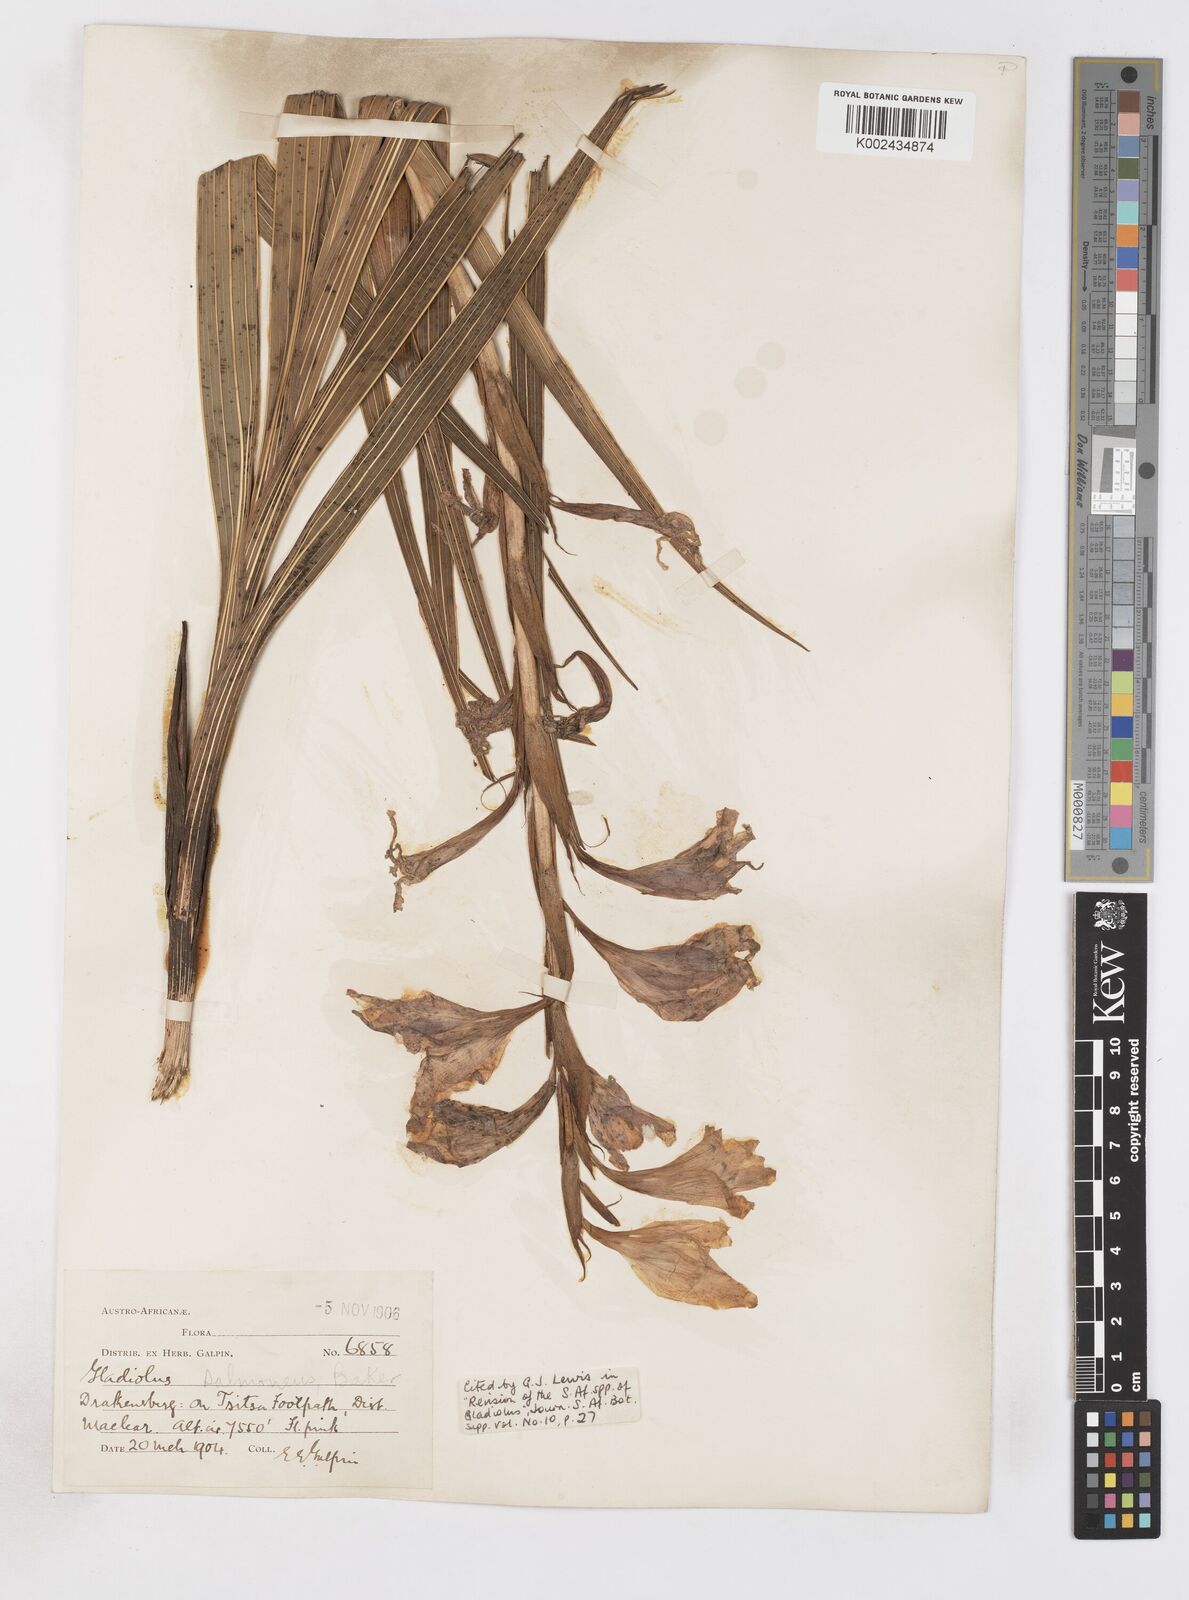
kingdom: Plantae
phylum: Tracheophyta
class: Liliopsida
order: Asparagales
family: Iridaceae
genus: Gladiolus
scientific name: Gladiolus oppositiflorus
